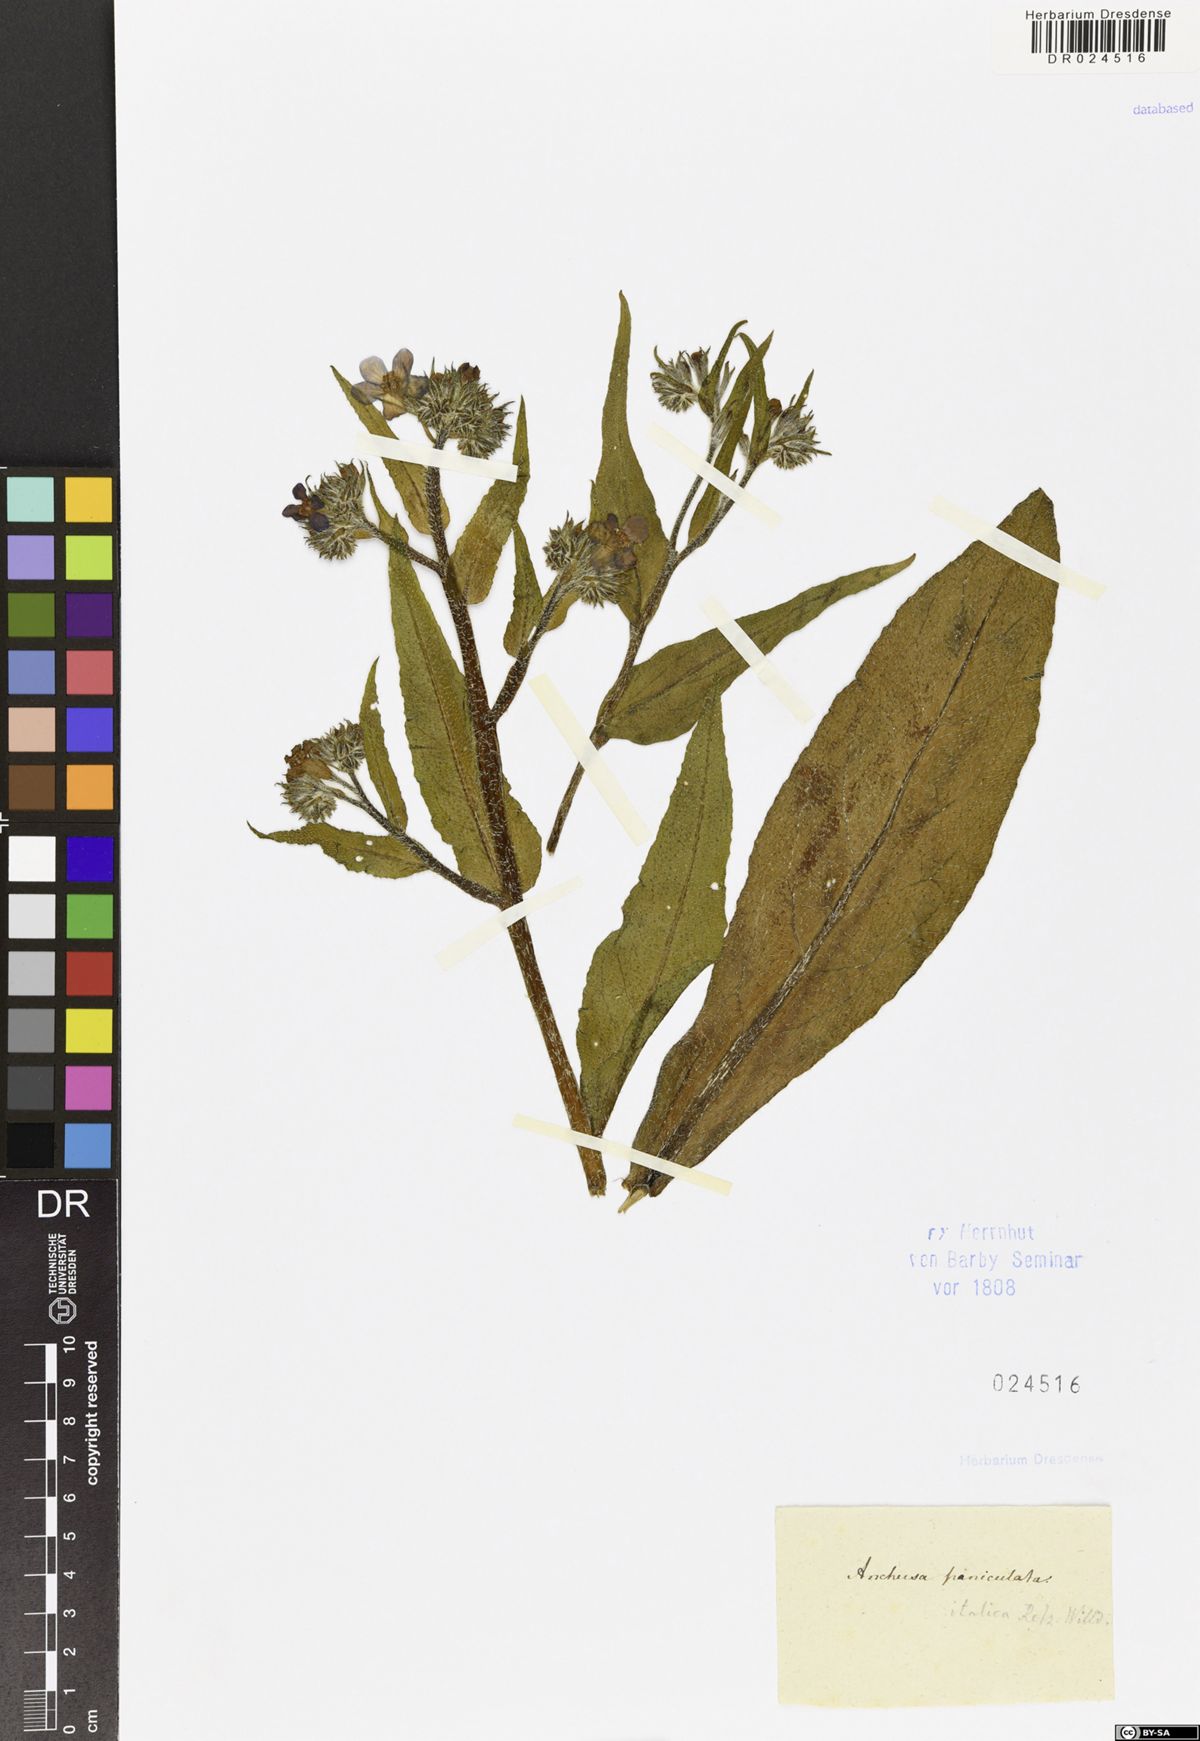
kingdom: Plantae
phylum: Tracheophyta
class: Magnoliopsida
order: Boraginales
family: Boraginaceae
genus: Anchusa
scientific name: Anchusa azurea
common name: Garden anchusa
